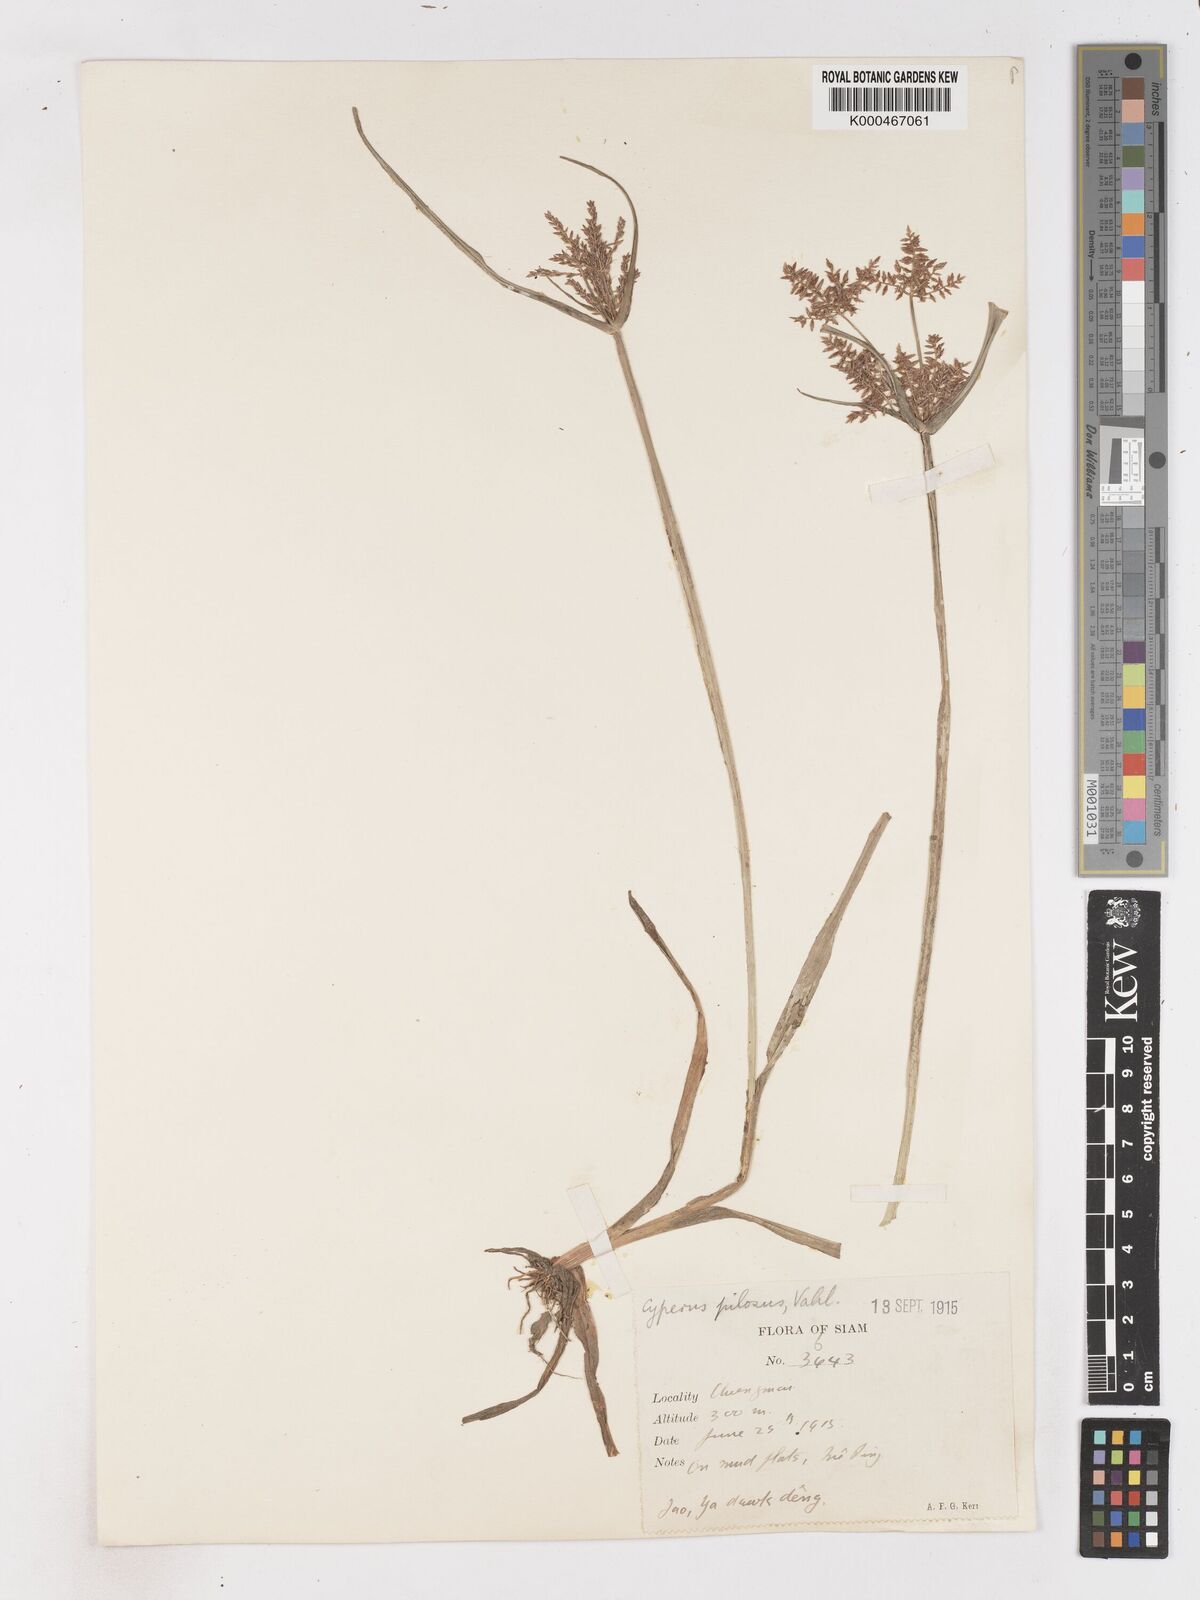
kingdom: Plantae
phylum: Tracheophyta
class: Liliopsida
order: Poales
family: Cyperaceae
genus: Cyperus
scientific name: Cyperus pilosus
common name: Fuzzy flatsedge
